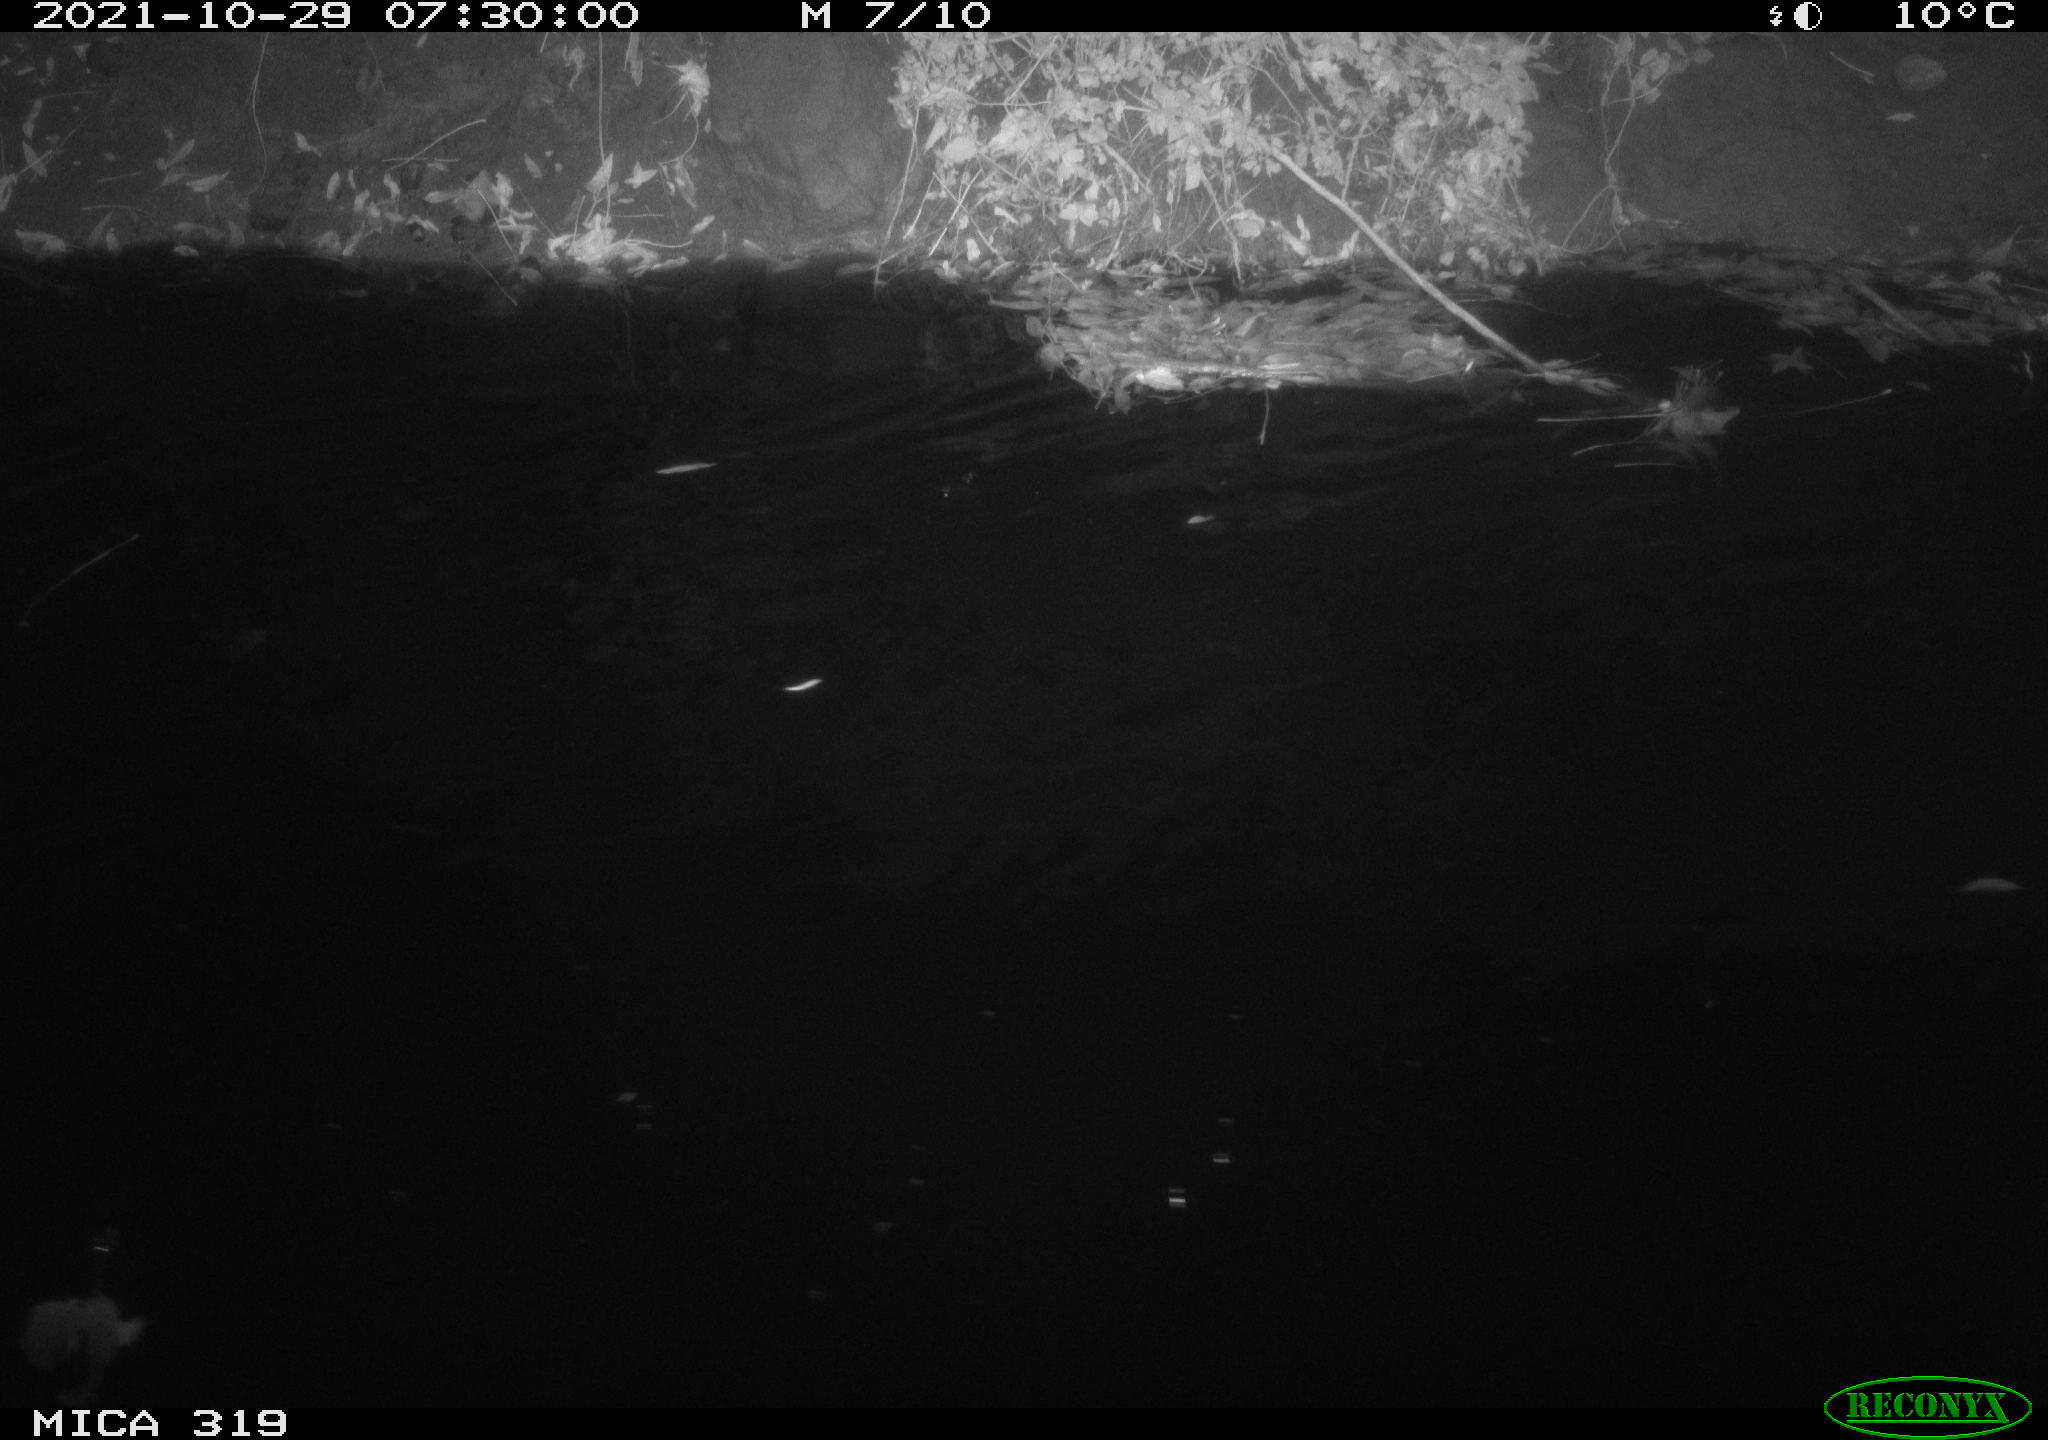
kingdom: Animalia
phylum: Chordata
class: Aves
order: Anseriformes
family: Anatidae
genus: Anas
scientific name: Anas platyrhynchos
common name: Mallard
